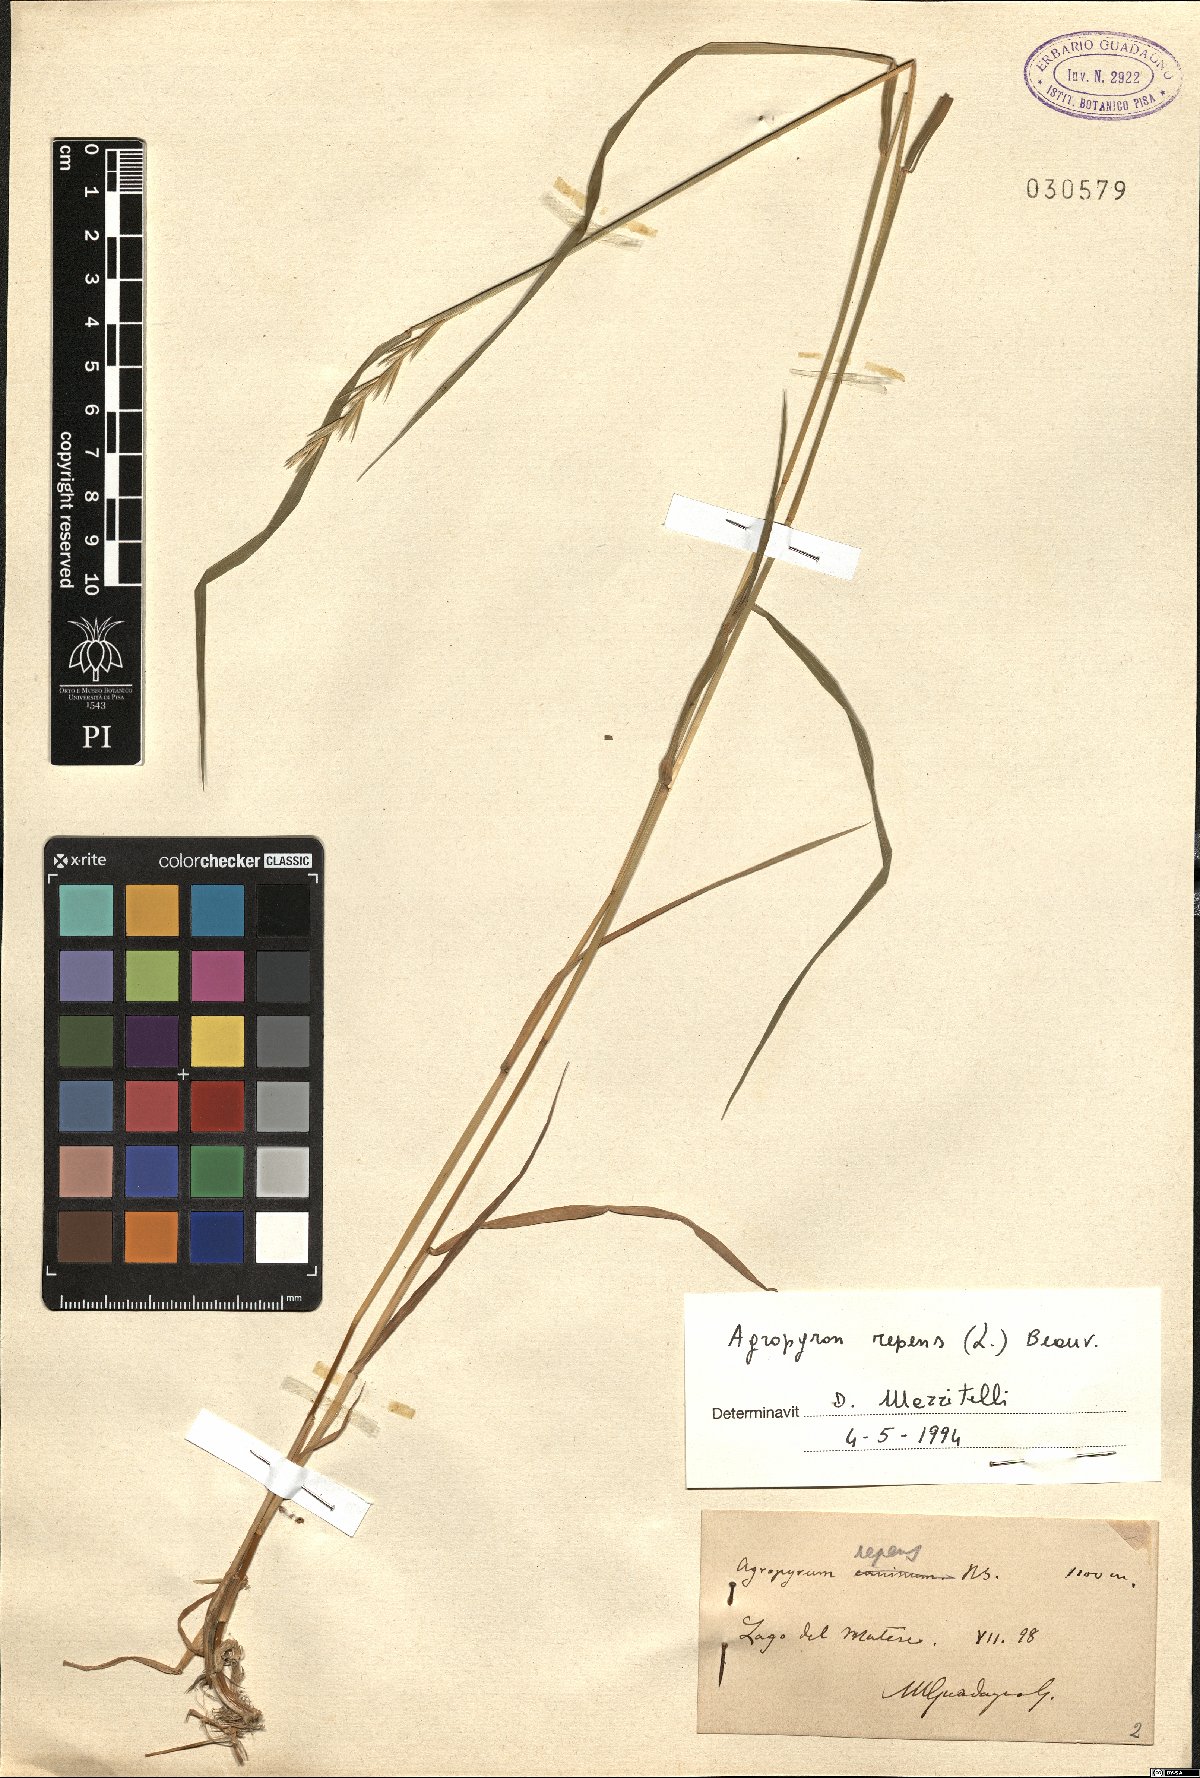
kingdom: Plantae
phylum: Tracheophyta
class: Liliopsida
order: Poales
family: Poaceae
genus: Elymus
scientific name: Elymus repens
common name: Quackgrass
